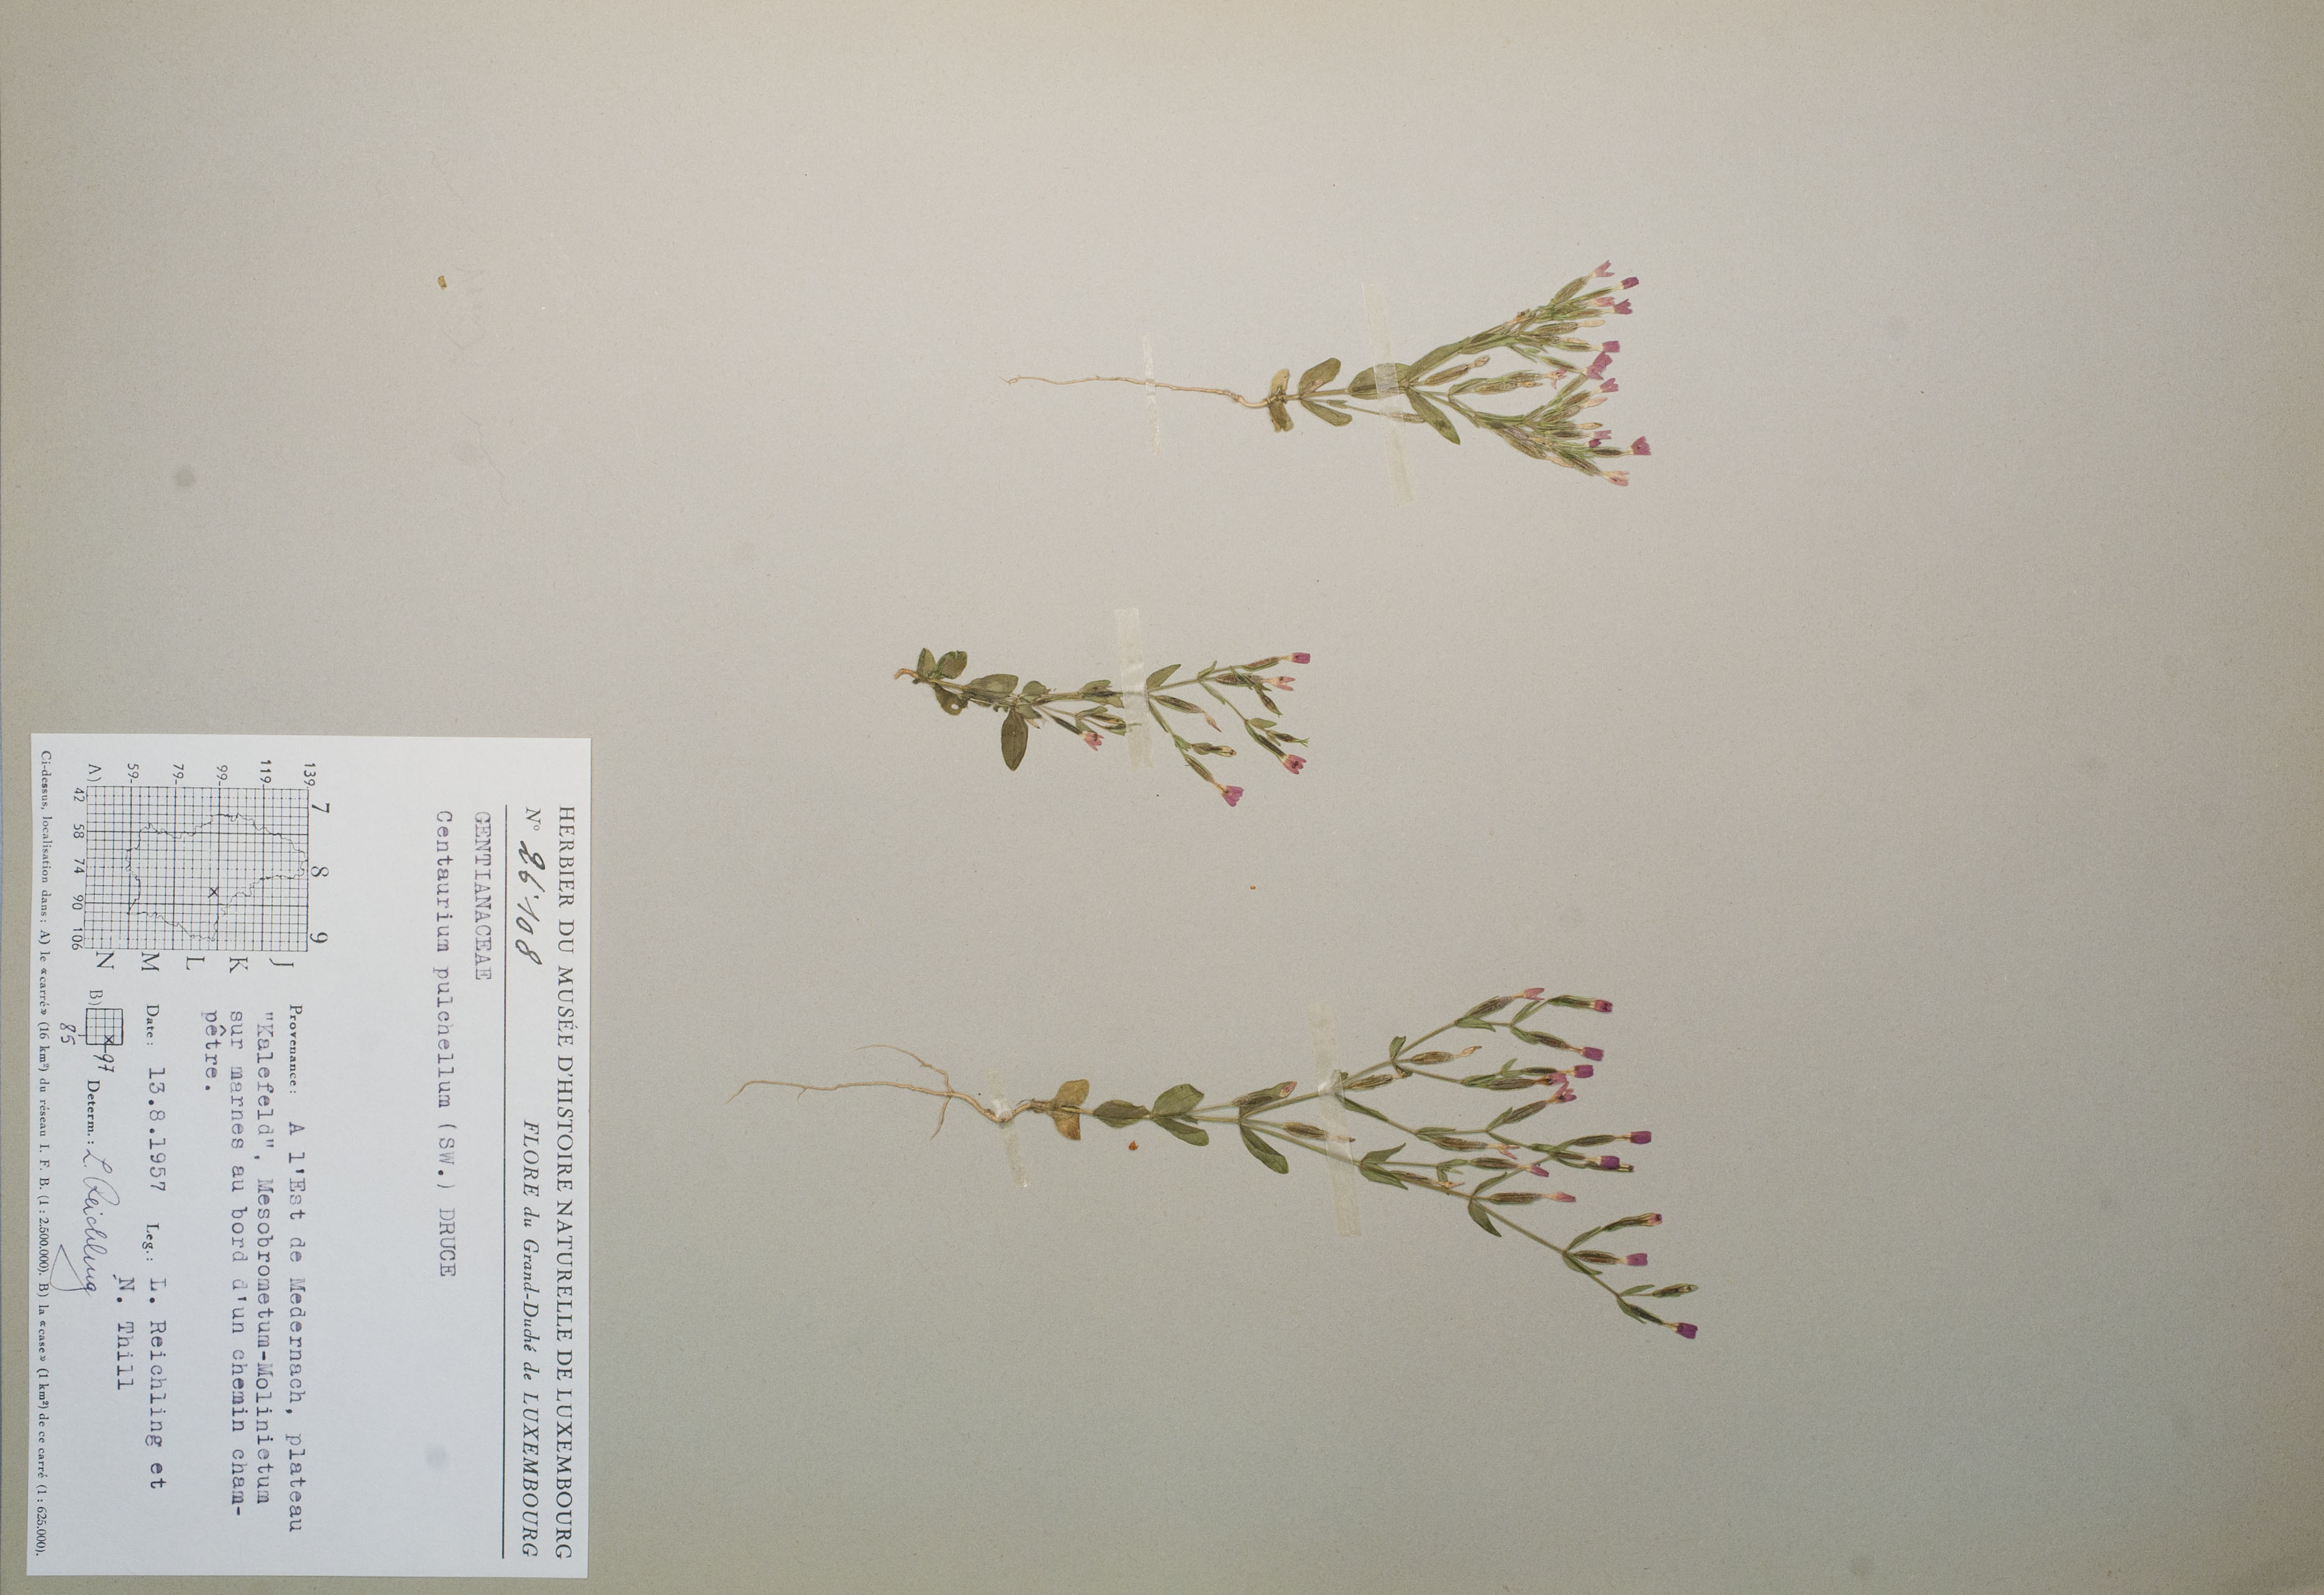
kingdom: Plantae
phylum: Tracheophyta
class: Magnoliopsida
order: Gentianales
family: Gentianaceae
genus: Centaurium
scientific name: Centaurium pulchellum
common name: Lesser centaury
